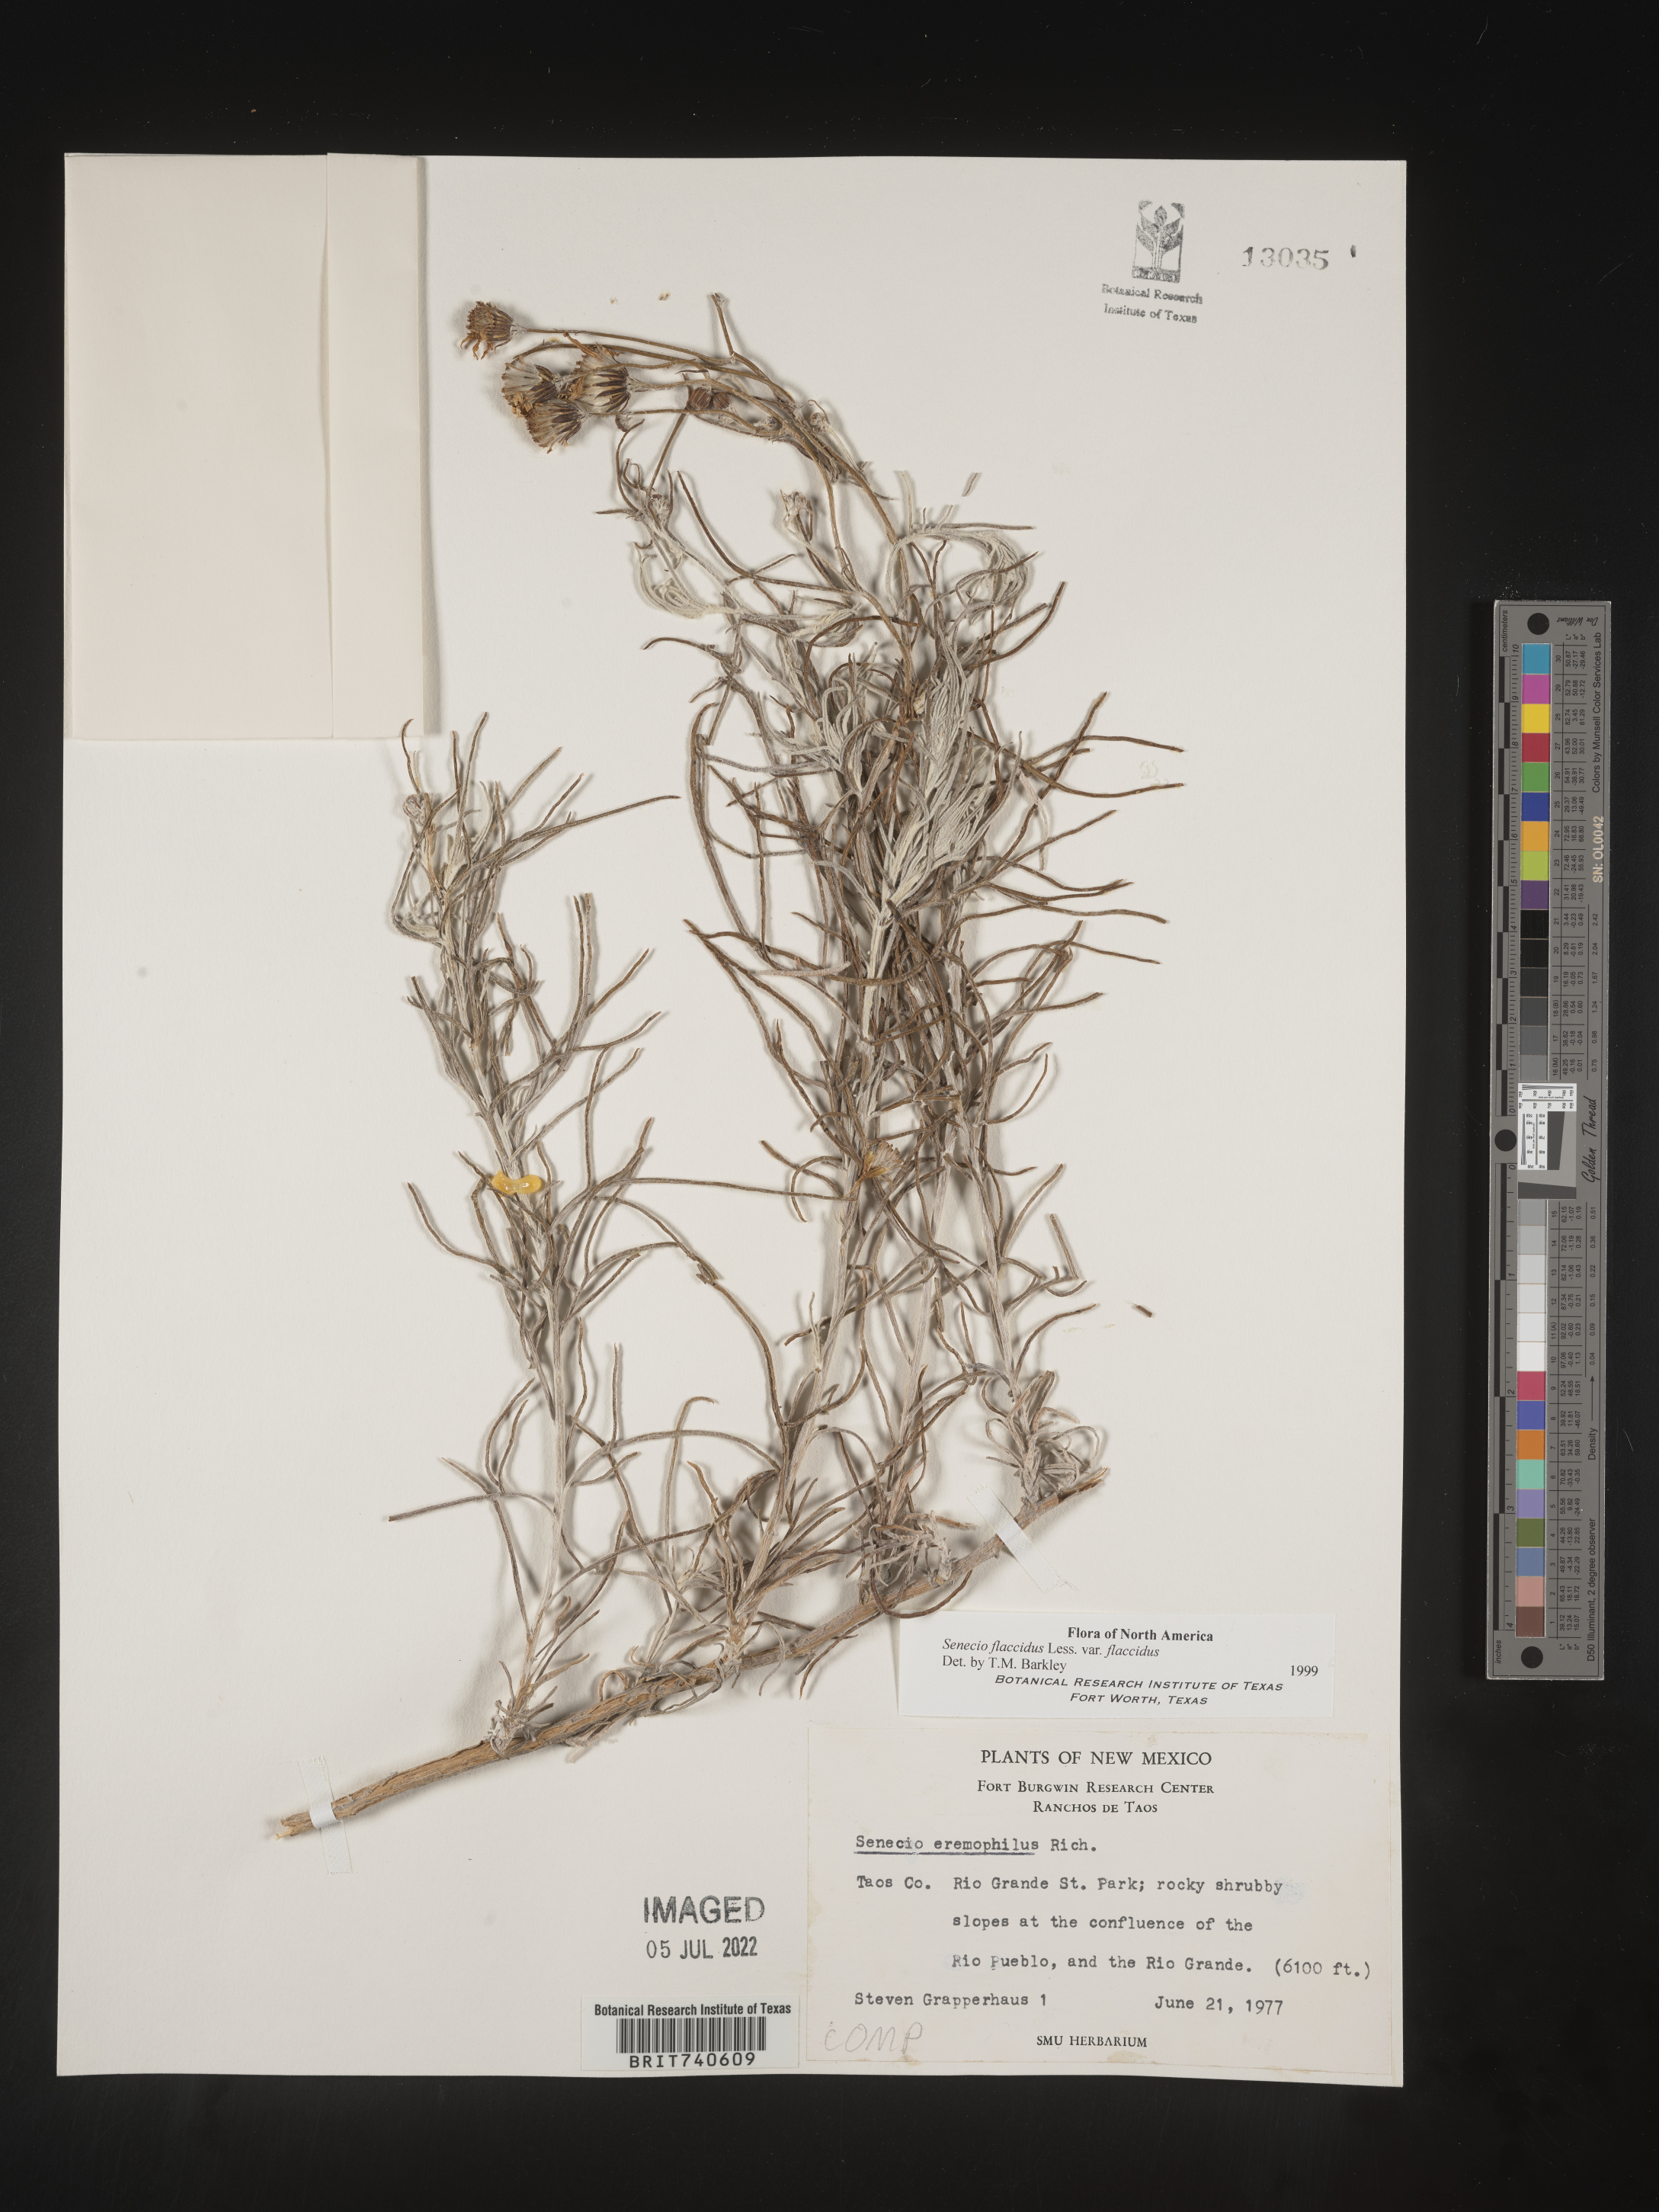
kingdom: Plantae
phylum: Tracheophyta
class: Magnoliopsida
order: Asterales
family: Asteraceae
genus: Senecio
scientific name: Senecio flaccidus
